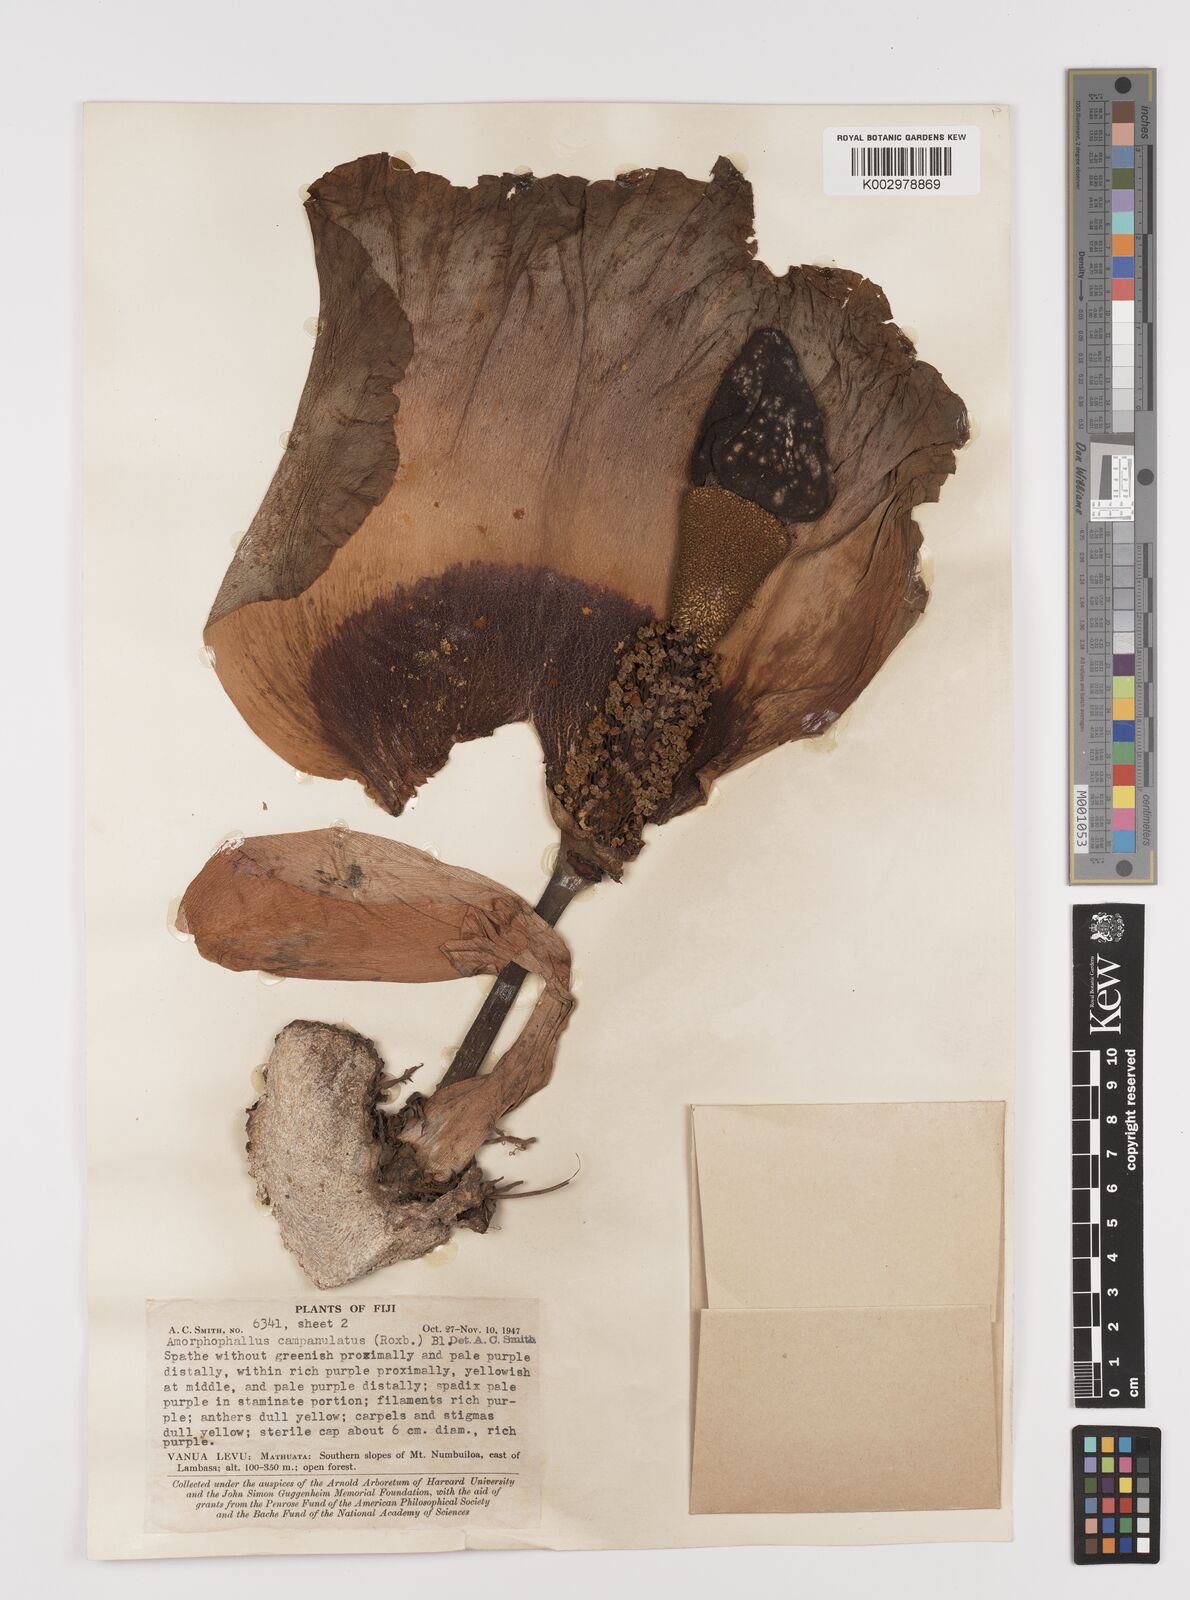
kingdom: Plantae
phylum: Tracheophyta
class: Liliopsida
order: Alismatales
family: Araceae
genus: Amorphophallus
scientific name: Amorphophallus paeoniifolius
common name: Telinga-potato
